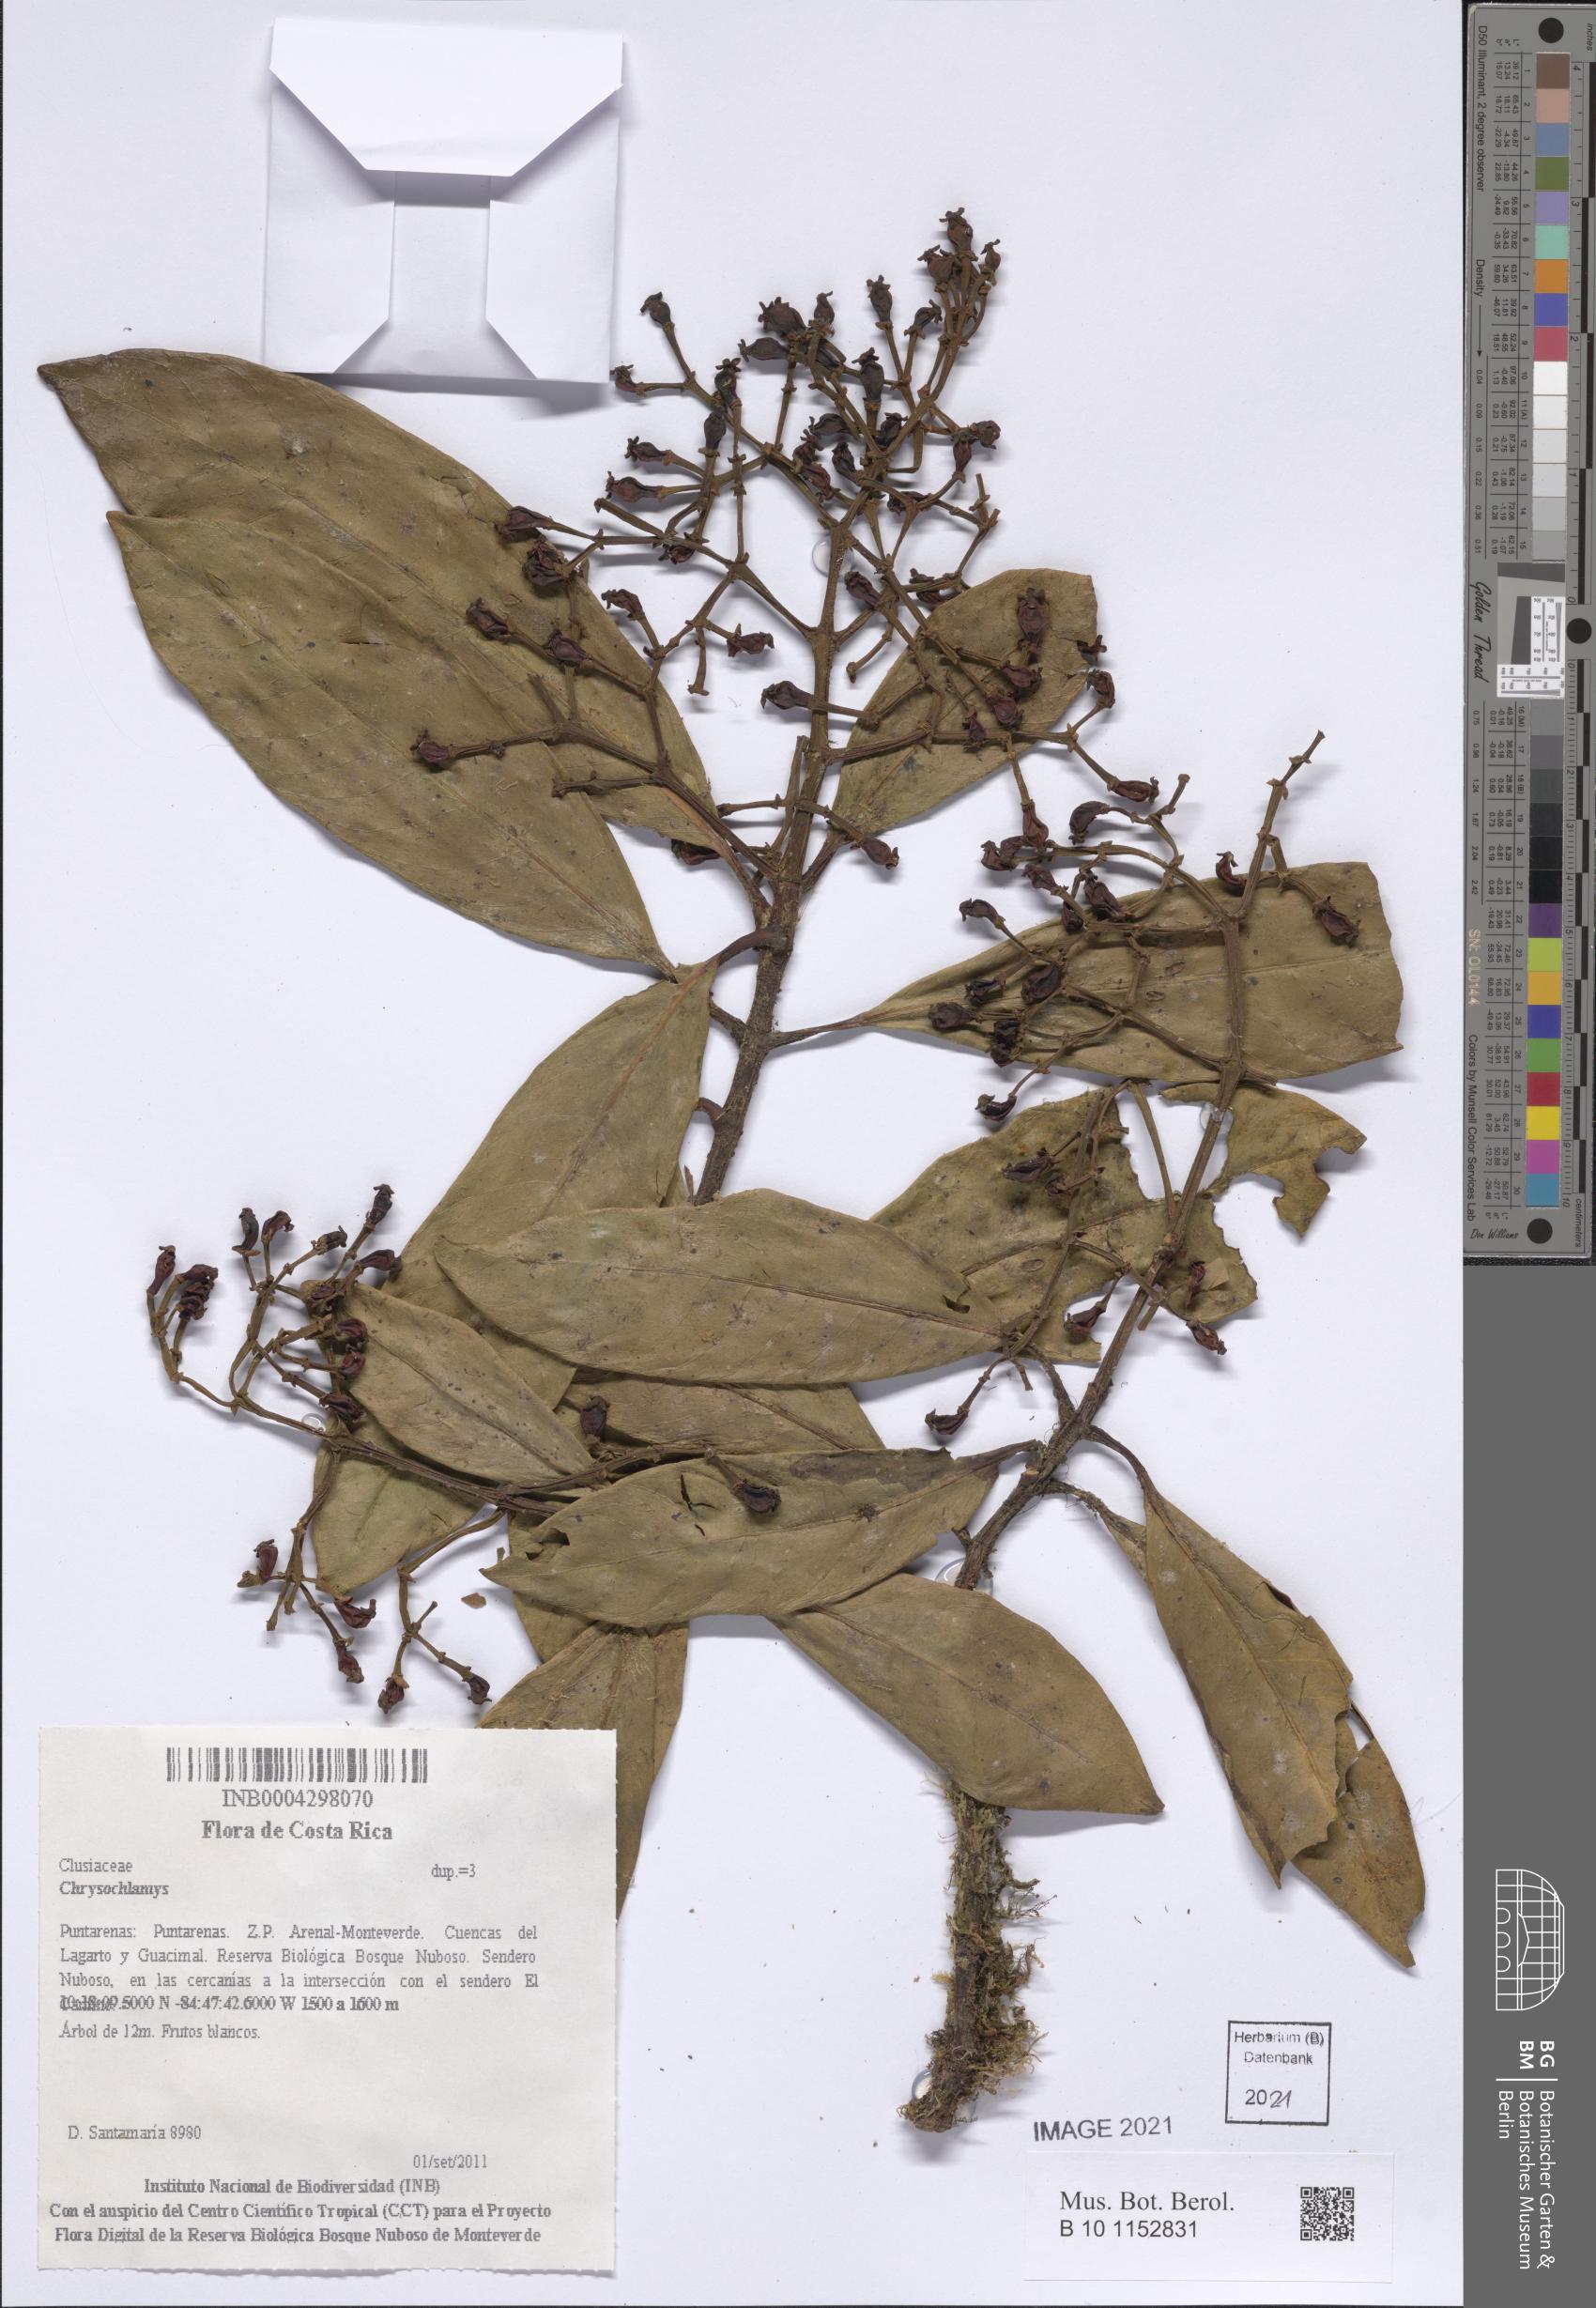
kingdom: Plantae
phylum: Tracheophyta
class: Magnoliopsida
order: Malpighiales
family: Clusiaceae
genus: Chrysochlamys
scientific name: Chrysochlamys allenii
